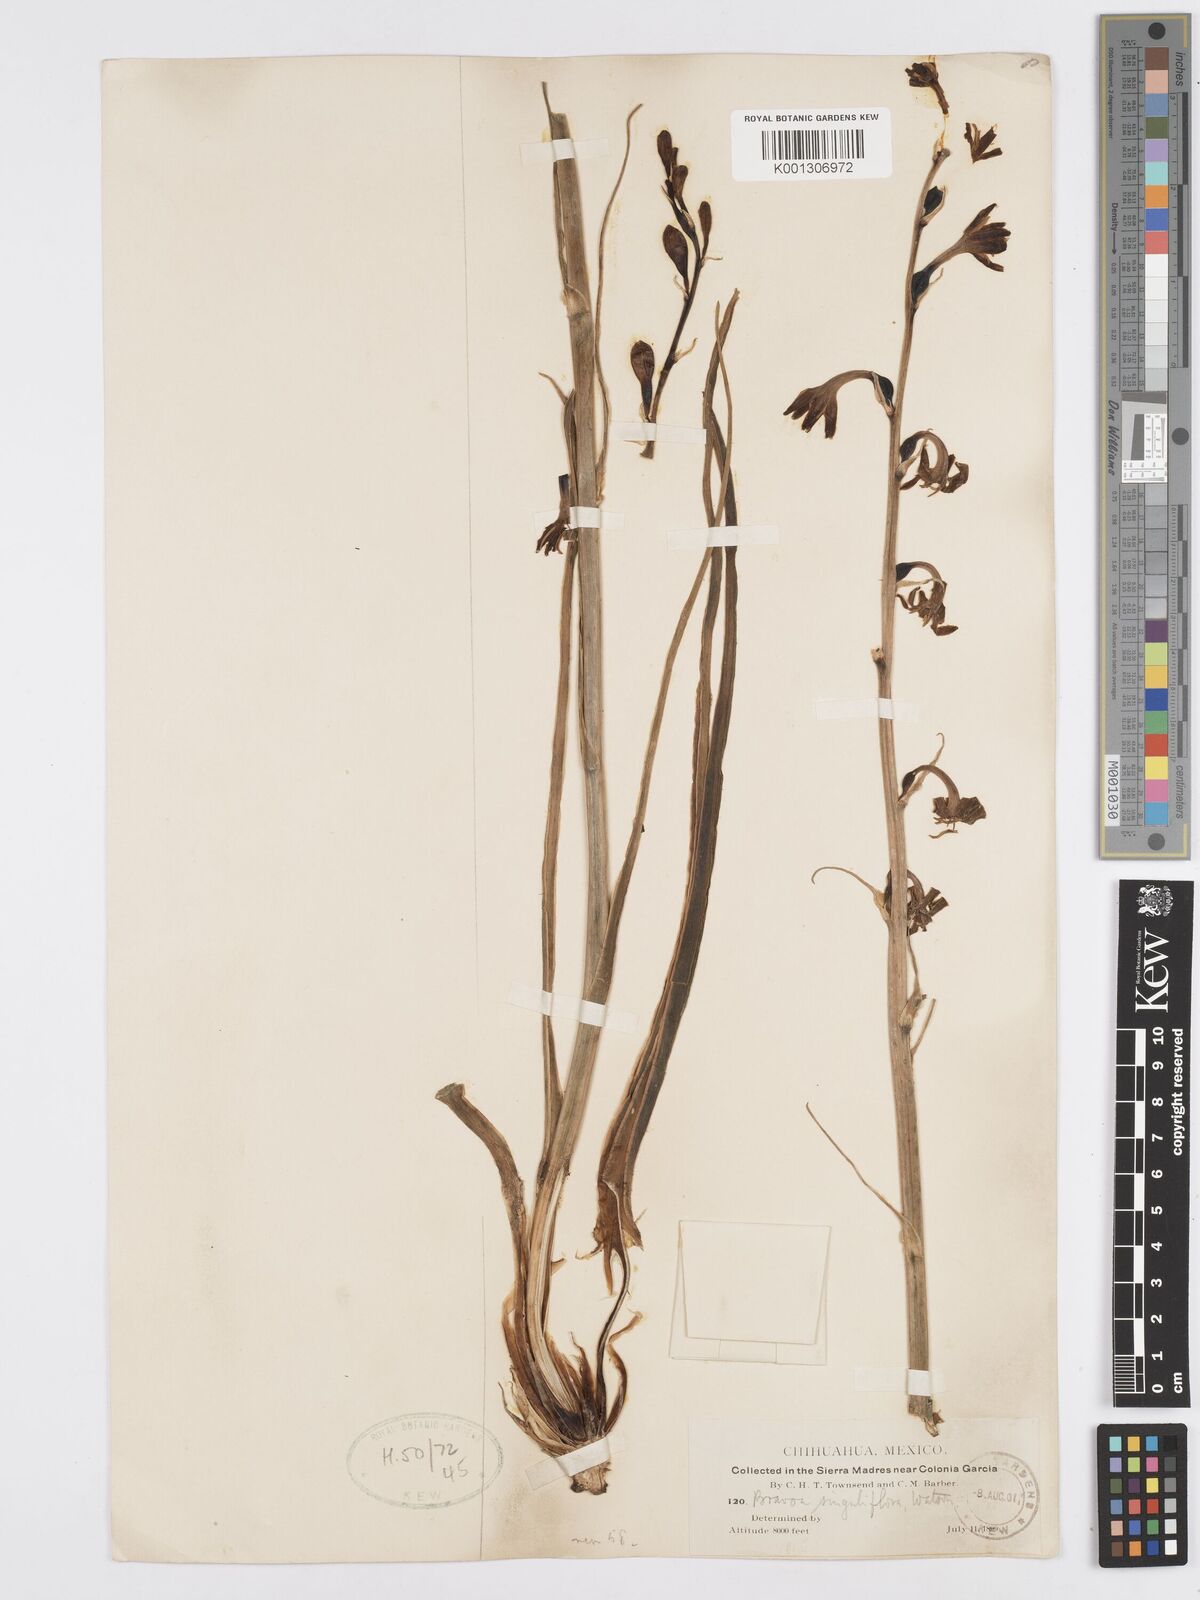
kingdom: Plantae
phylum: Tracheophyta
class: Liliopsida
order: Asparagales
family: Asparagaceae
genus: Agave
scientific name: Agave singuliflora
